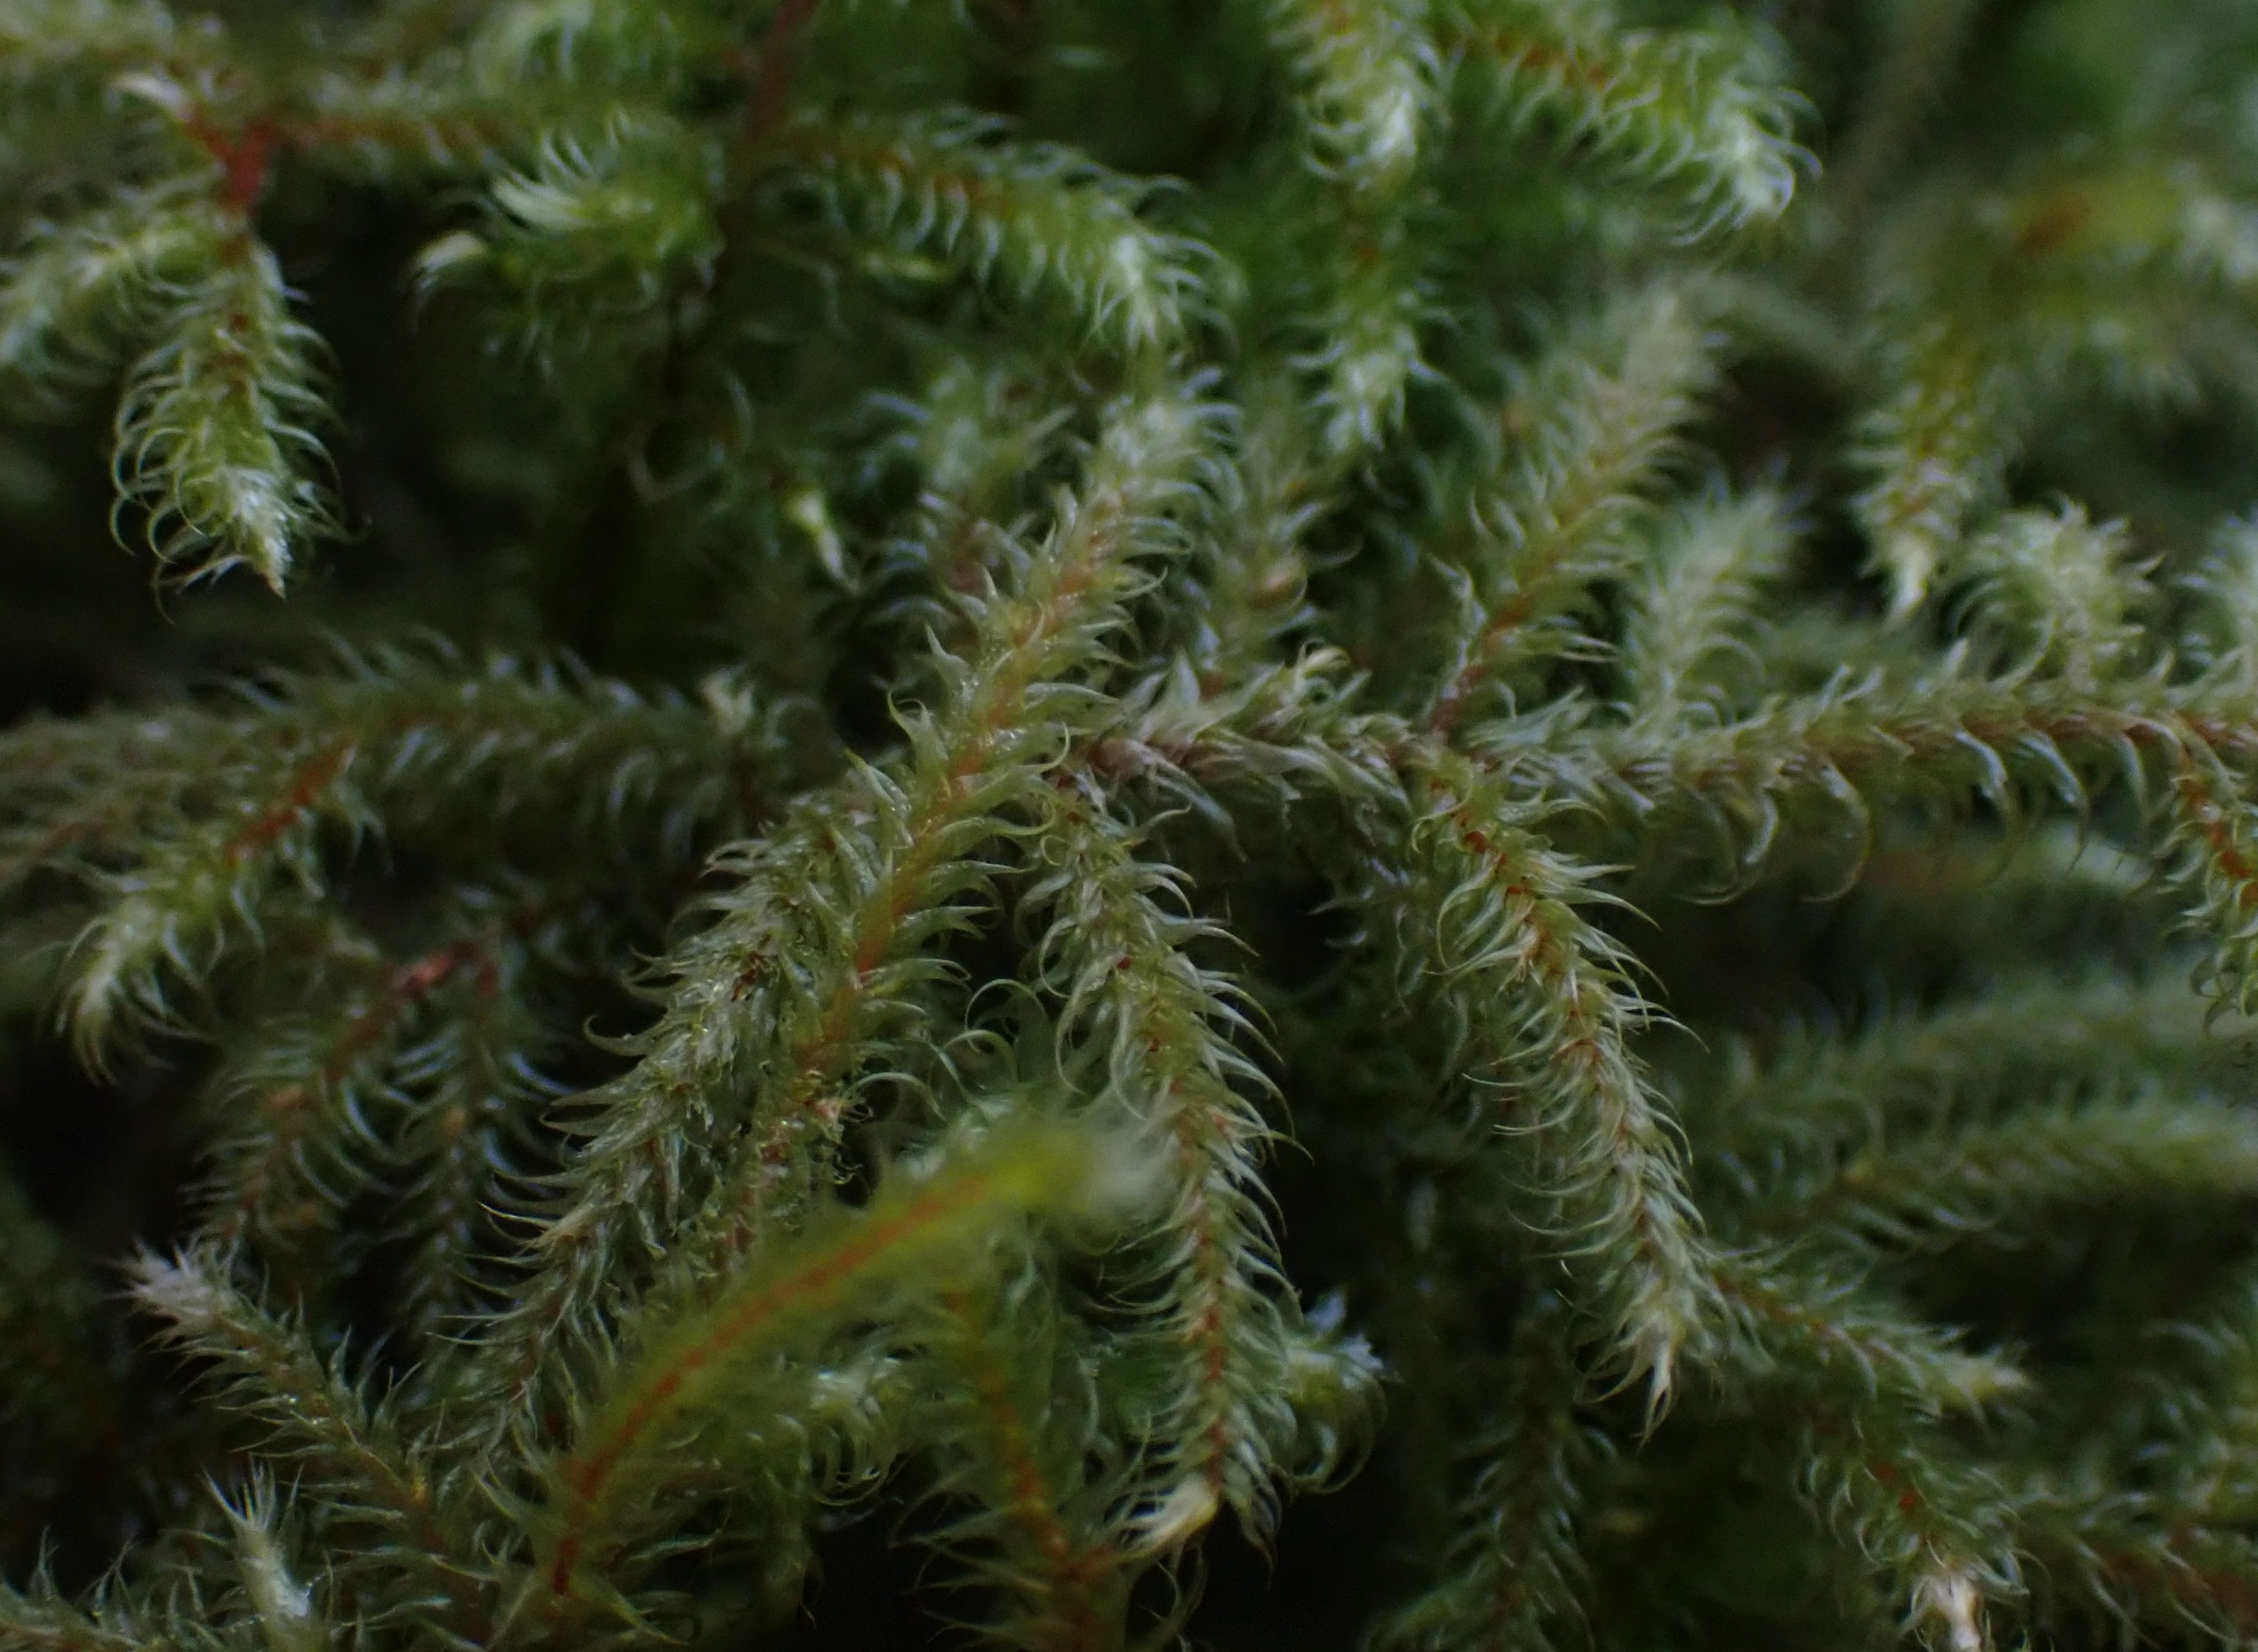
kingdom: Plantae
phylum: Bryophyta
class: Bryopsida
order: Hypnales
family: Hylocomiaceae
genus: Rhytidiadelphus
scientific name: Rhytidiadelphus loreus
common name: Ulvefod-kransemos
